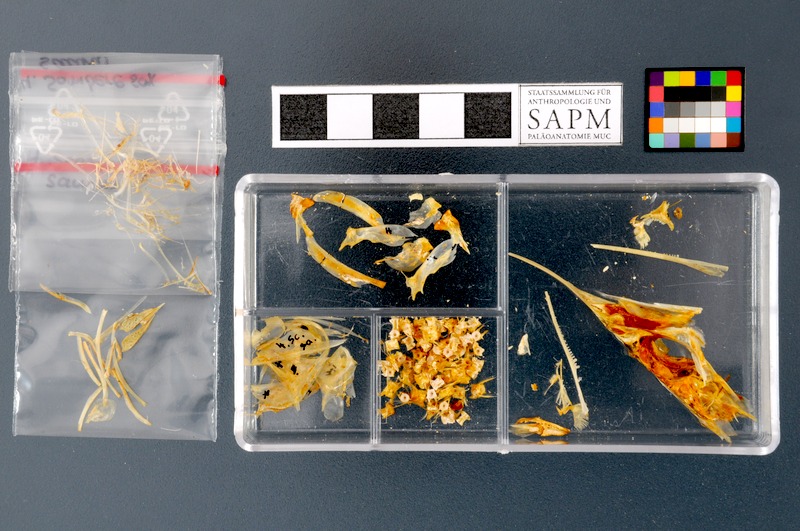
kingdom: Animalia
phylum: Chordata
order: Beloniformes
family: Scomberesocidae
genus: Scomberesox
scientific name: Scomberesox saurus
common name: Skipper
